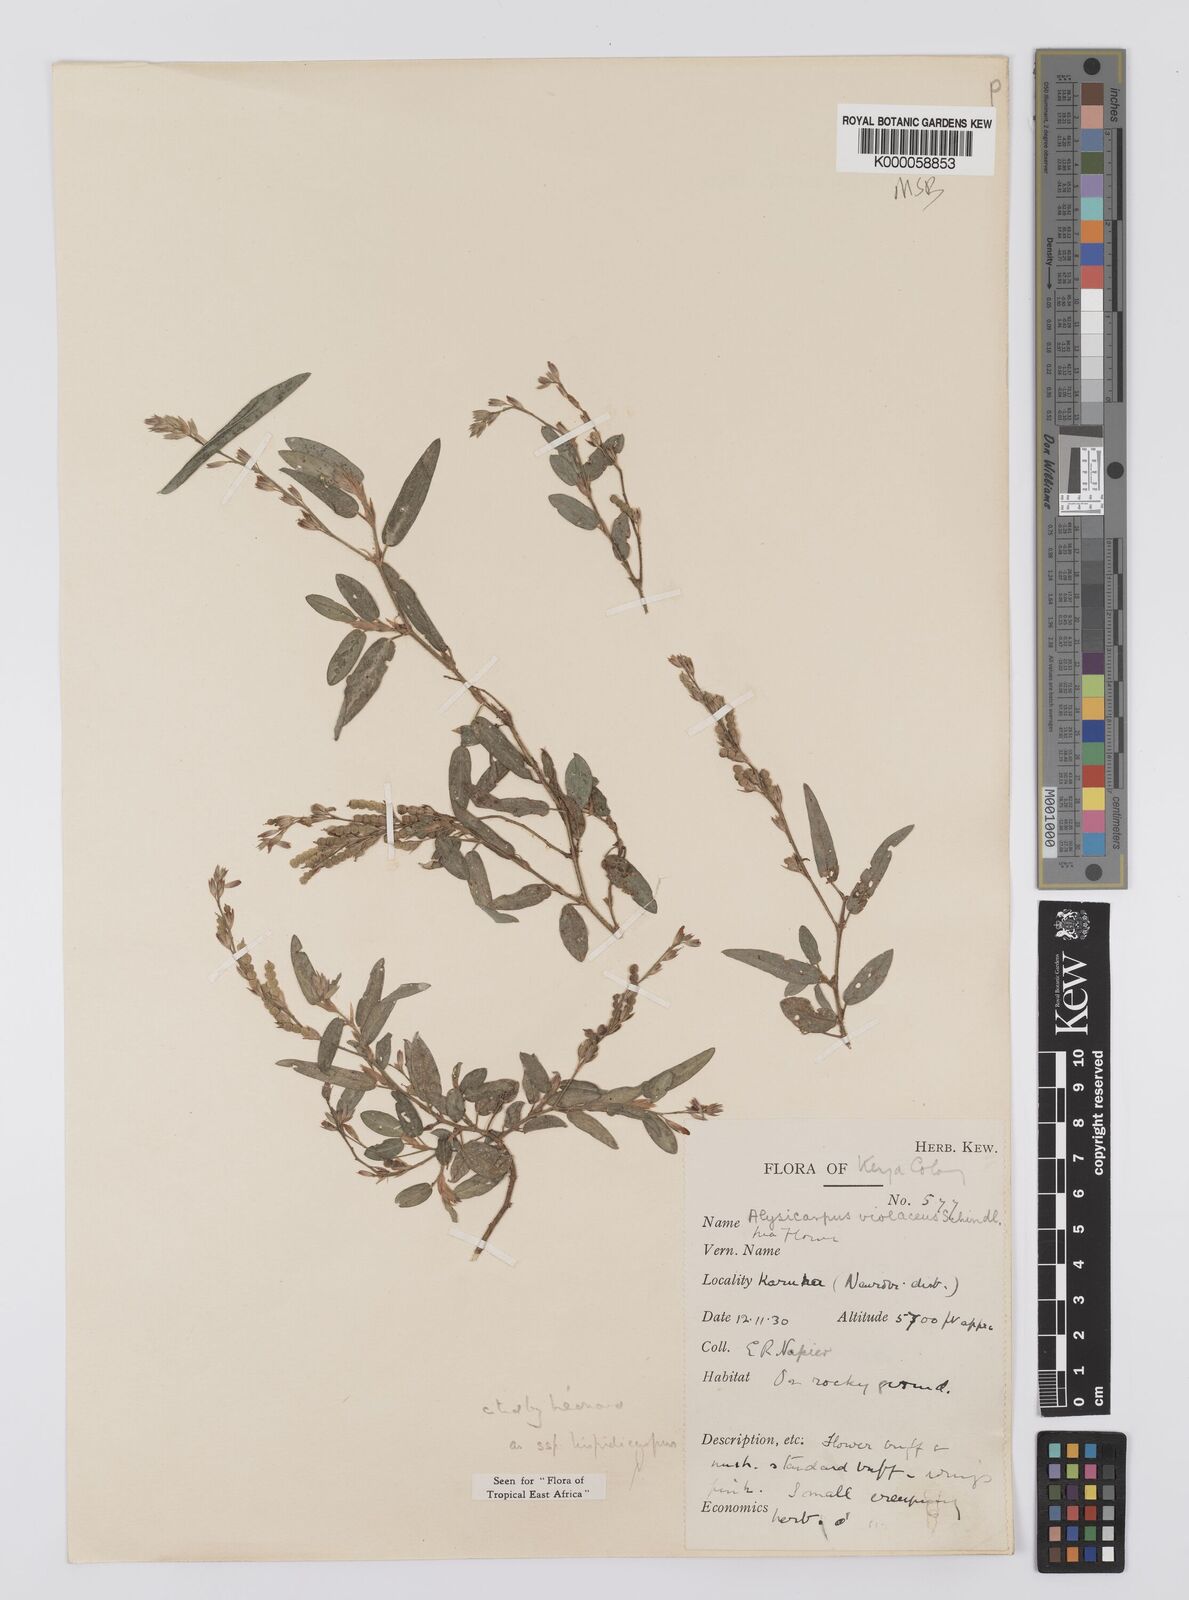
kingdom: Plantae
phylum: Tracheophyta
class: Magnoliopsida
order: Fabales
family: Fabaceae
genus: Alysicarpus
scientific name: Alysicarpus glumaceus
